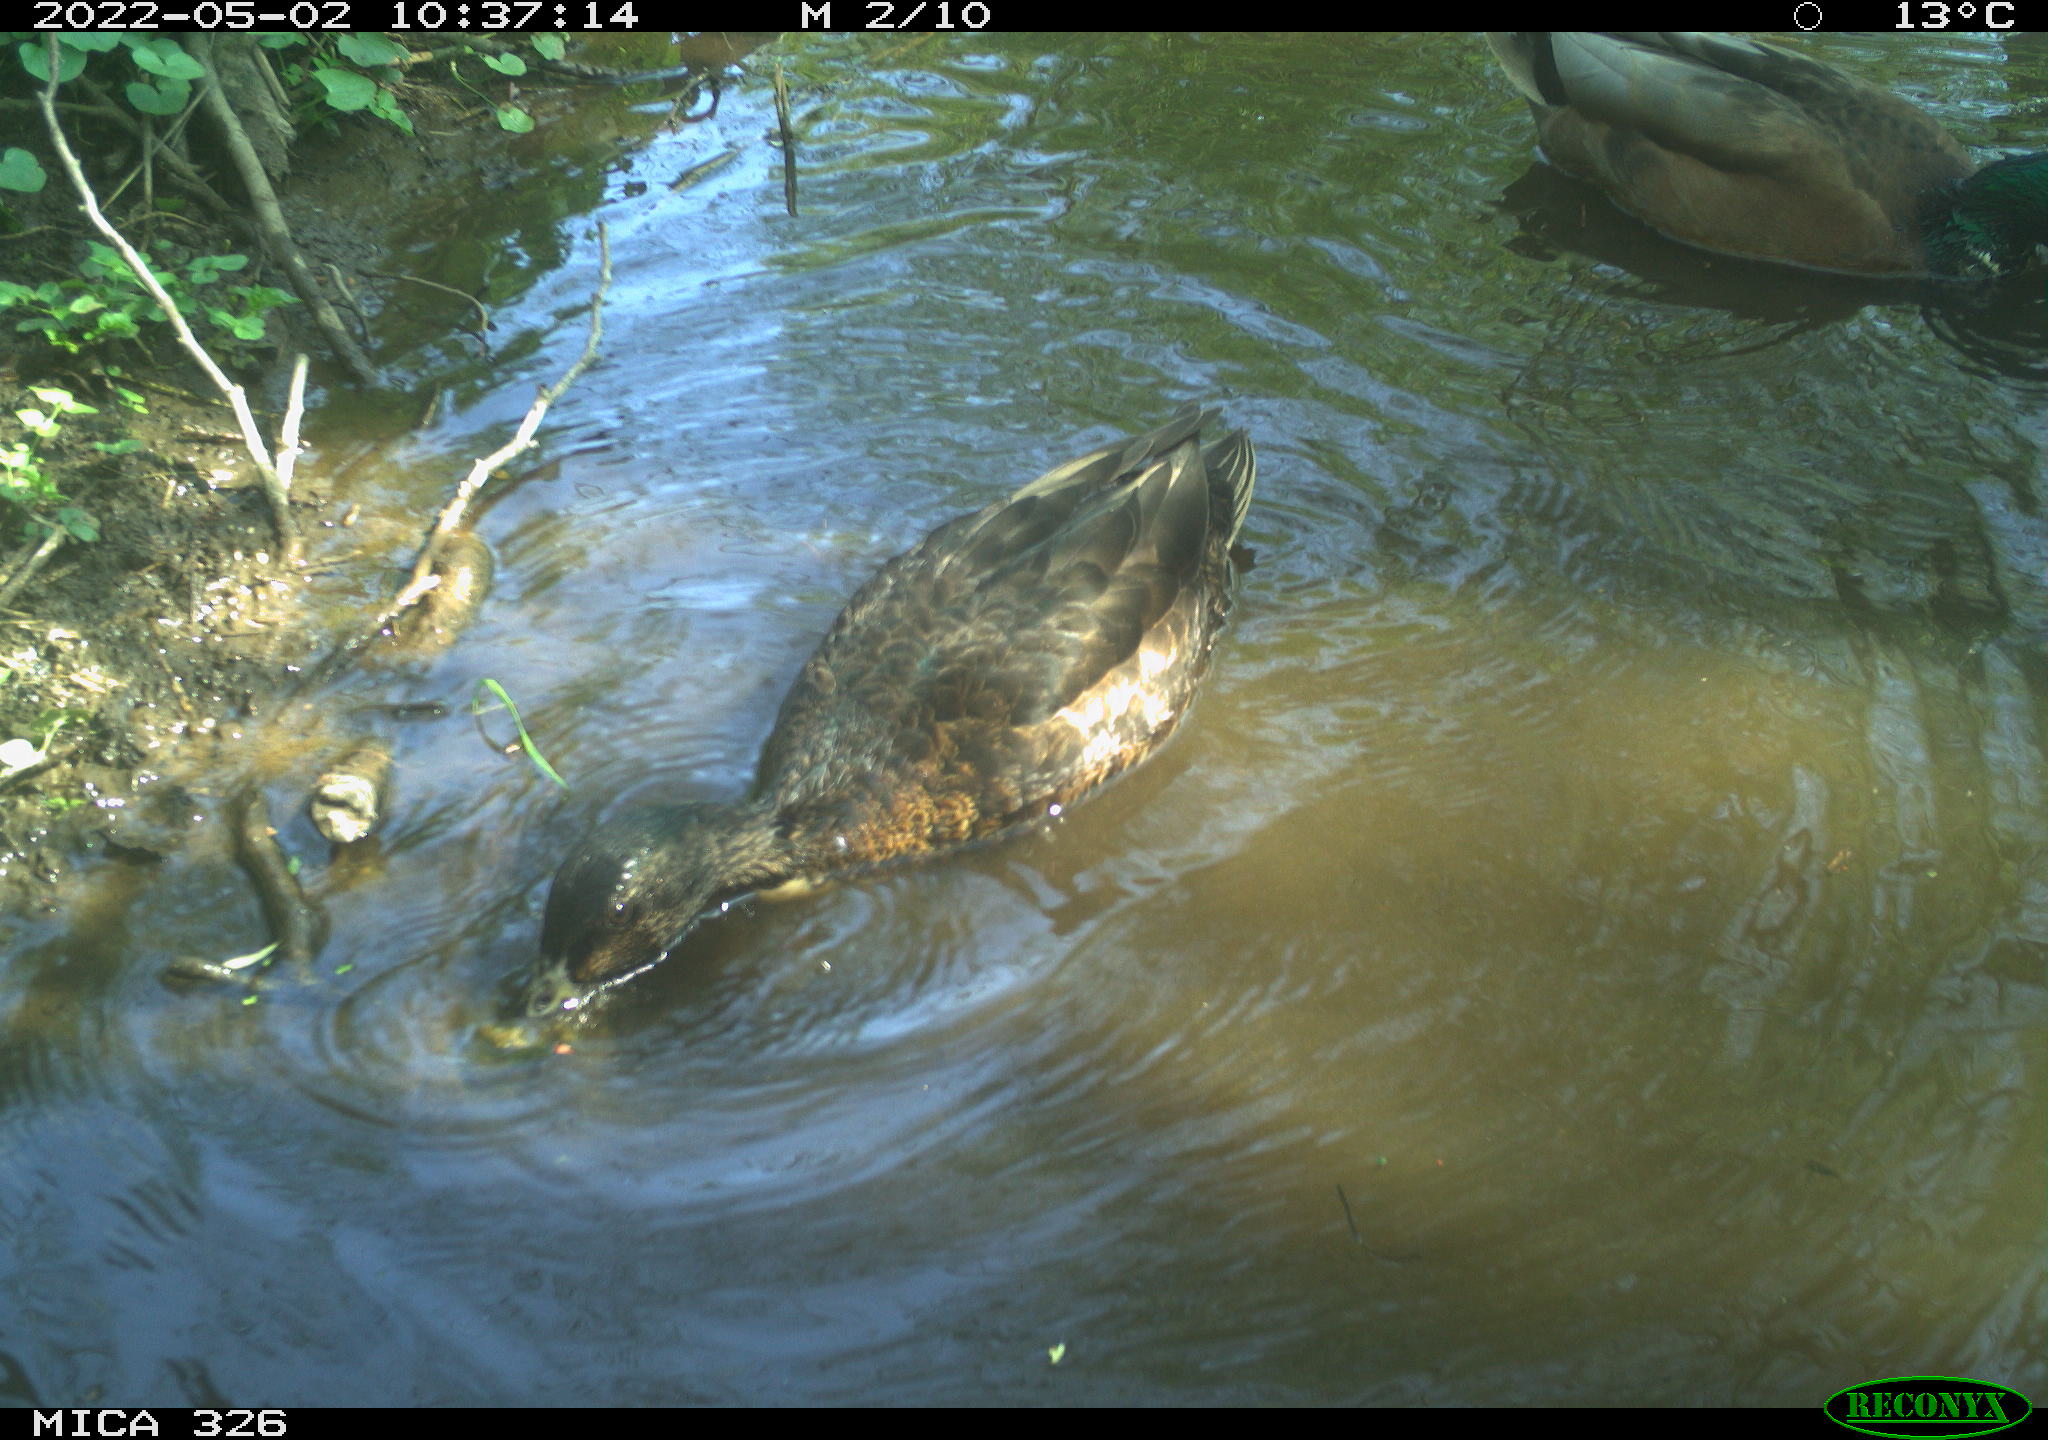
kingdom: Animalia
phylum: Chordata
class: Aves
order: Anseriformes
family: Anatidae
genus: Anas
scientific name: Anas platyrhynchos
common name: Mallard
